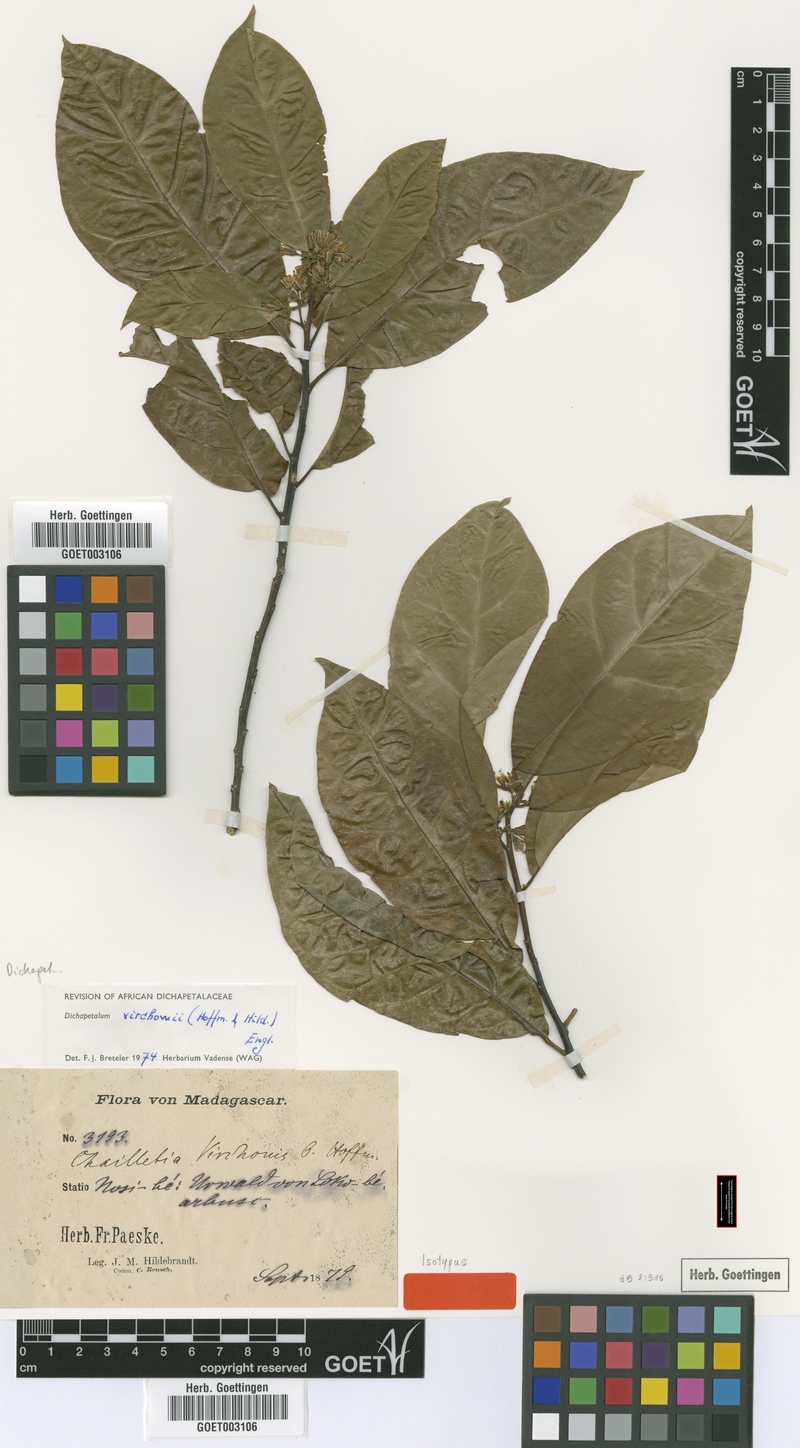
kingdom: Plantae
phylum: Tracheophyta
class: Magnoliopsida
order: Malpighiales
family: Dichapetalaceae
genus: Dichapetalum
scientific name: Dichapetalum virchowii
